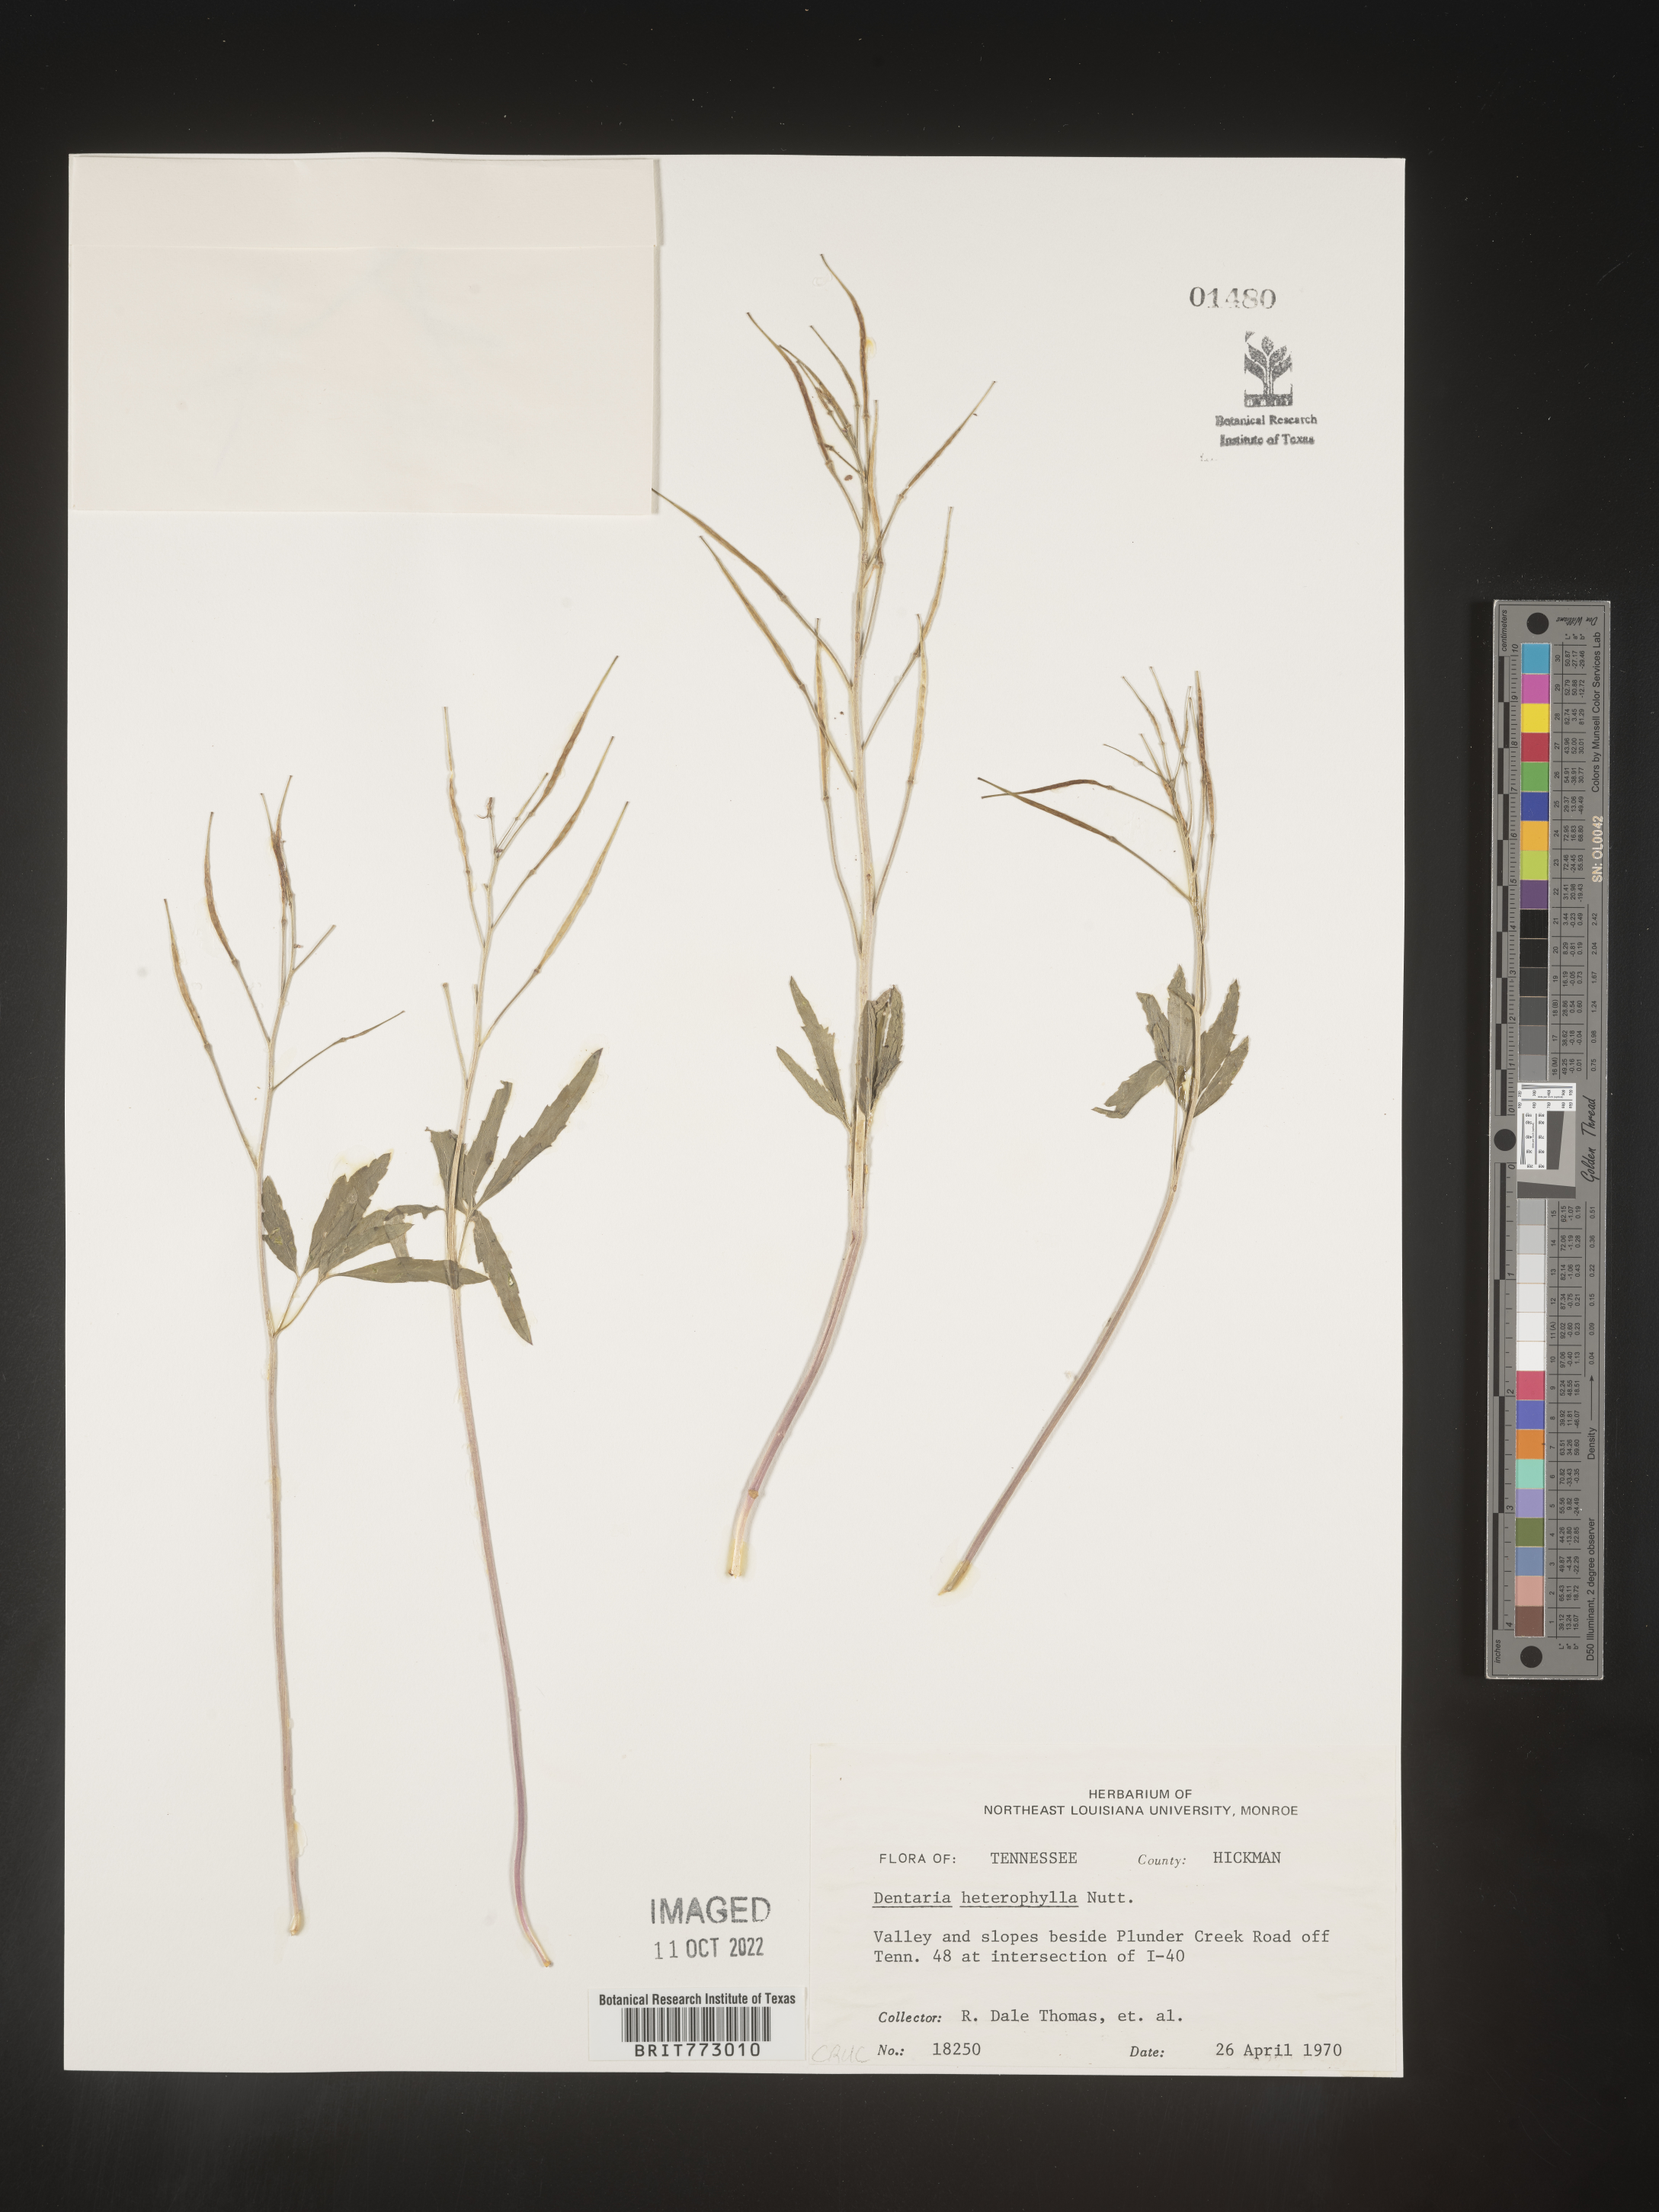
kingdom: Plantae
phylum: Tracheophyta
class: Magnoliopsida
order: Brassicales
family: Brassicaceae
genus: Cardamine
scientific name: Cardamine angustata
